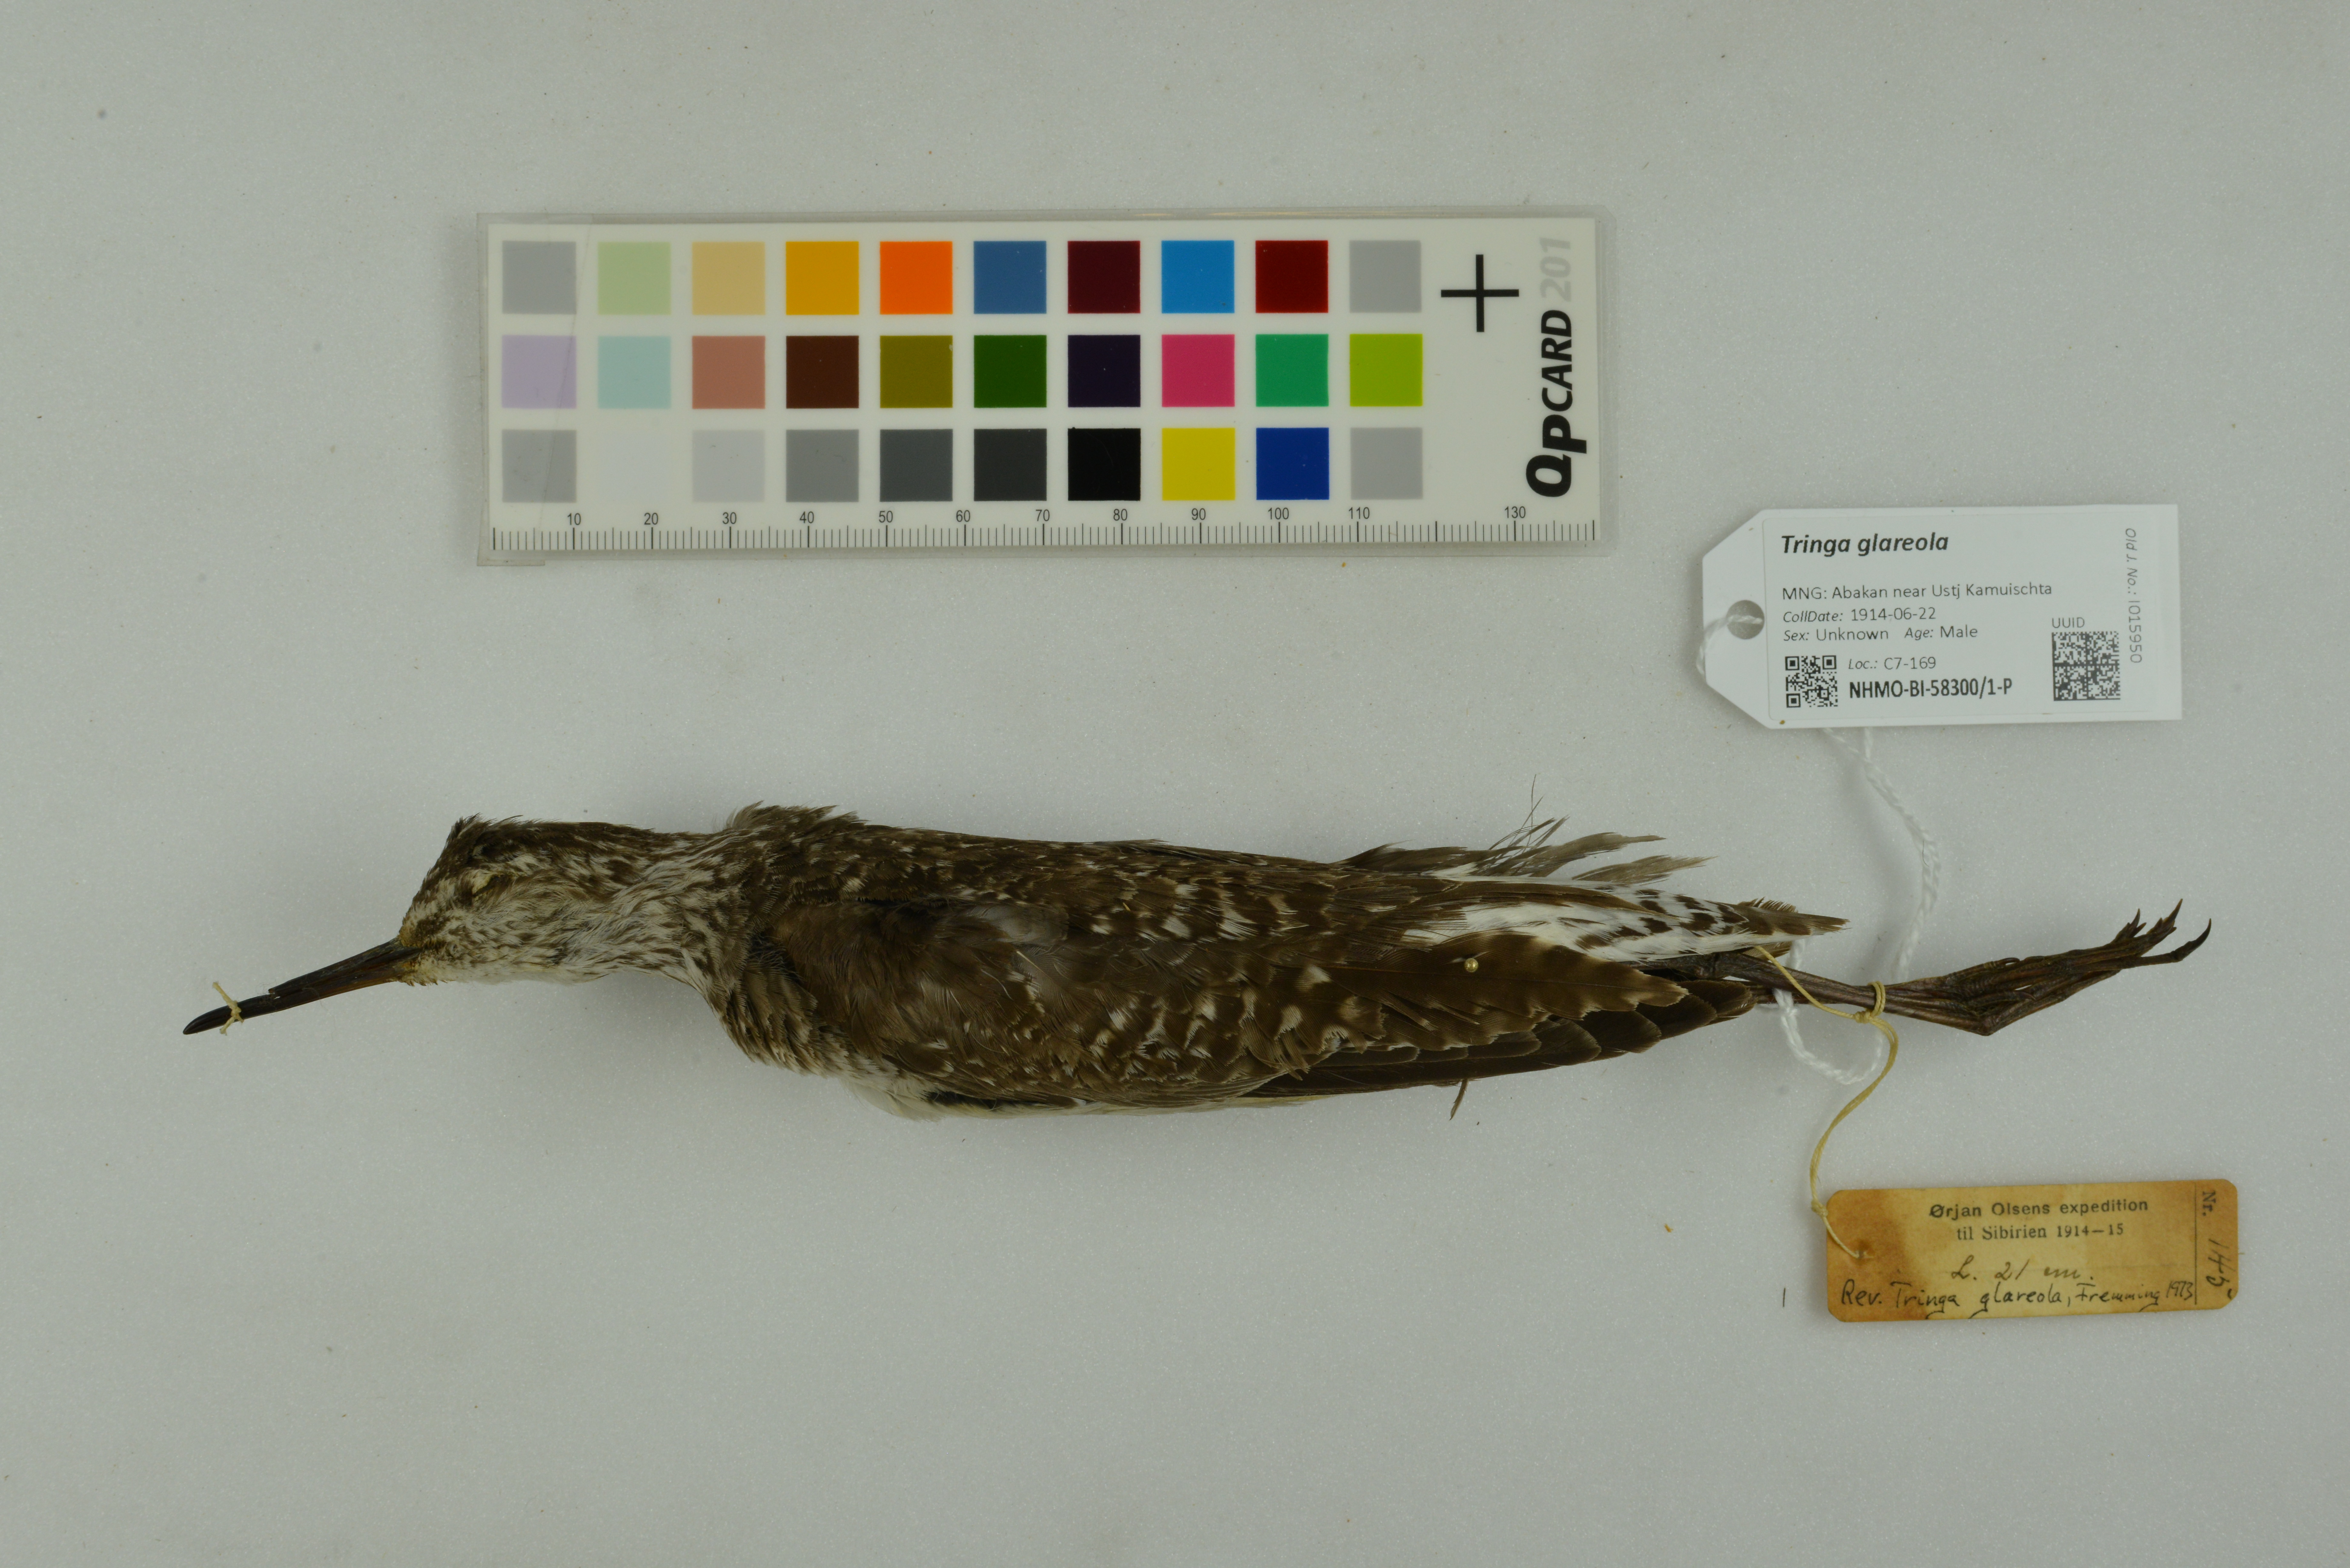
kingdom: Animalia
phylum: Chordata
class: Aves
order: Charadriiformes
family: Scolopacidae
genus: Tringa
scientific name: Tringa glareola
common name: Wood sandpiper
